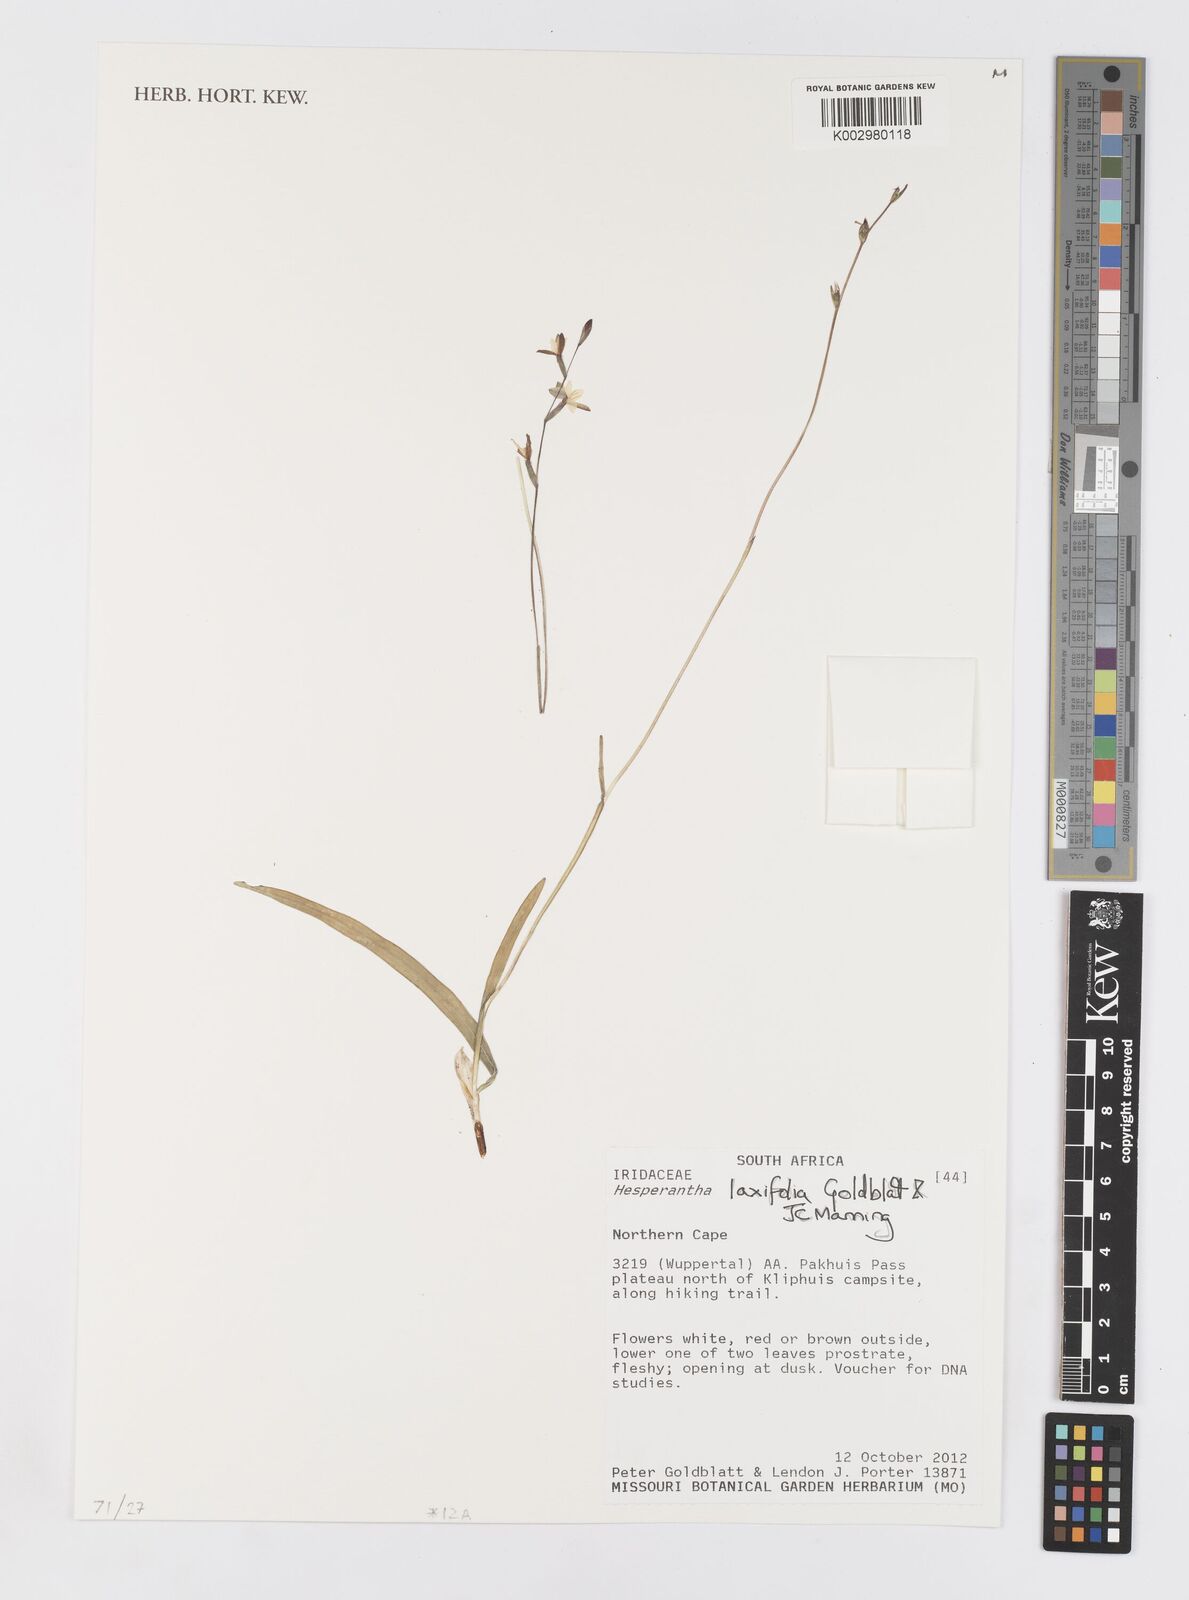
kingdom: Plantae
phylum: Tracheophyta
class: Liliopsida
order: Asparagales
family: Iridaceae
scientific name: Iridaceae
